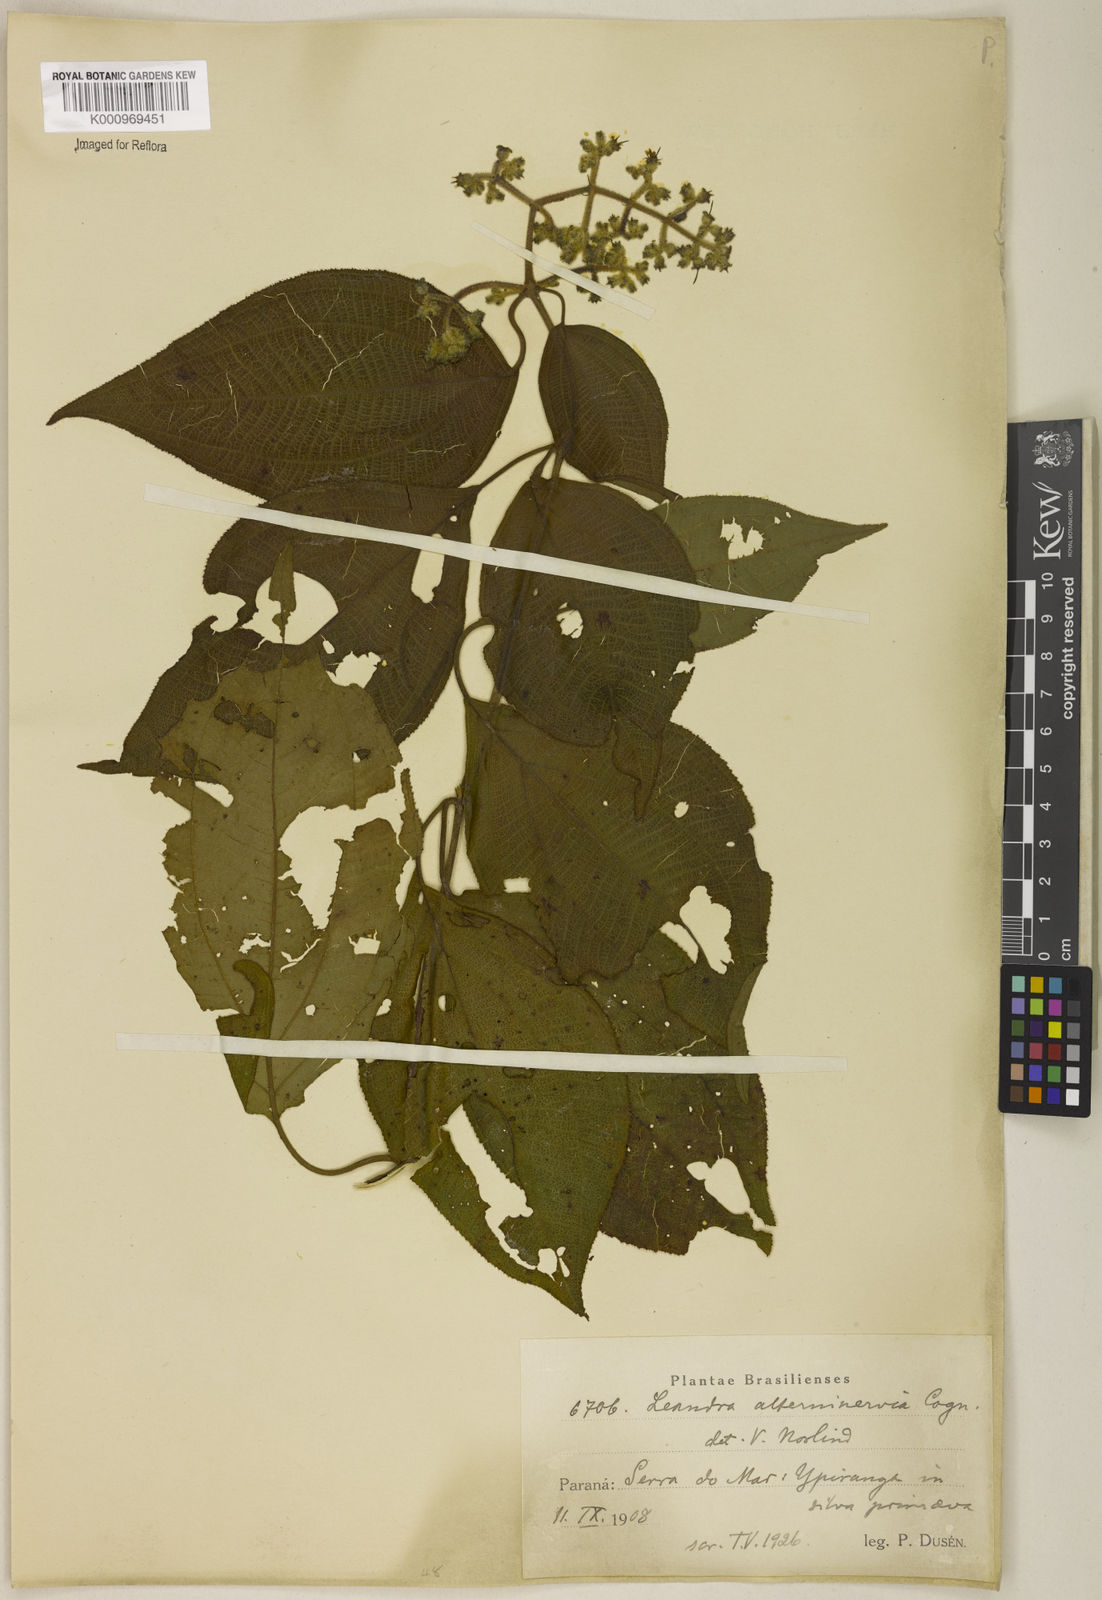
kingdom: Plantae
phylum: Tracheophyta
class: Magnoliopsida
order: Myrtales
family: Melastomataceae
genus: Miconia
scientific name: Miconia
